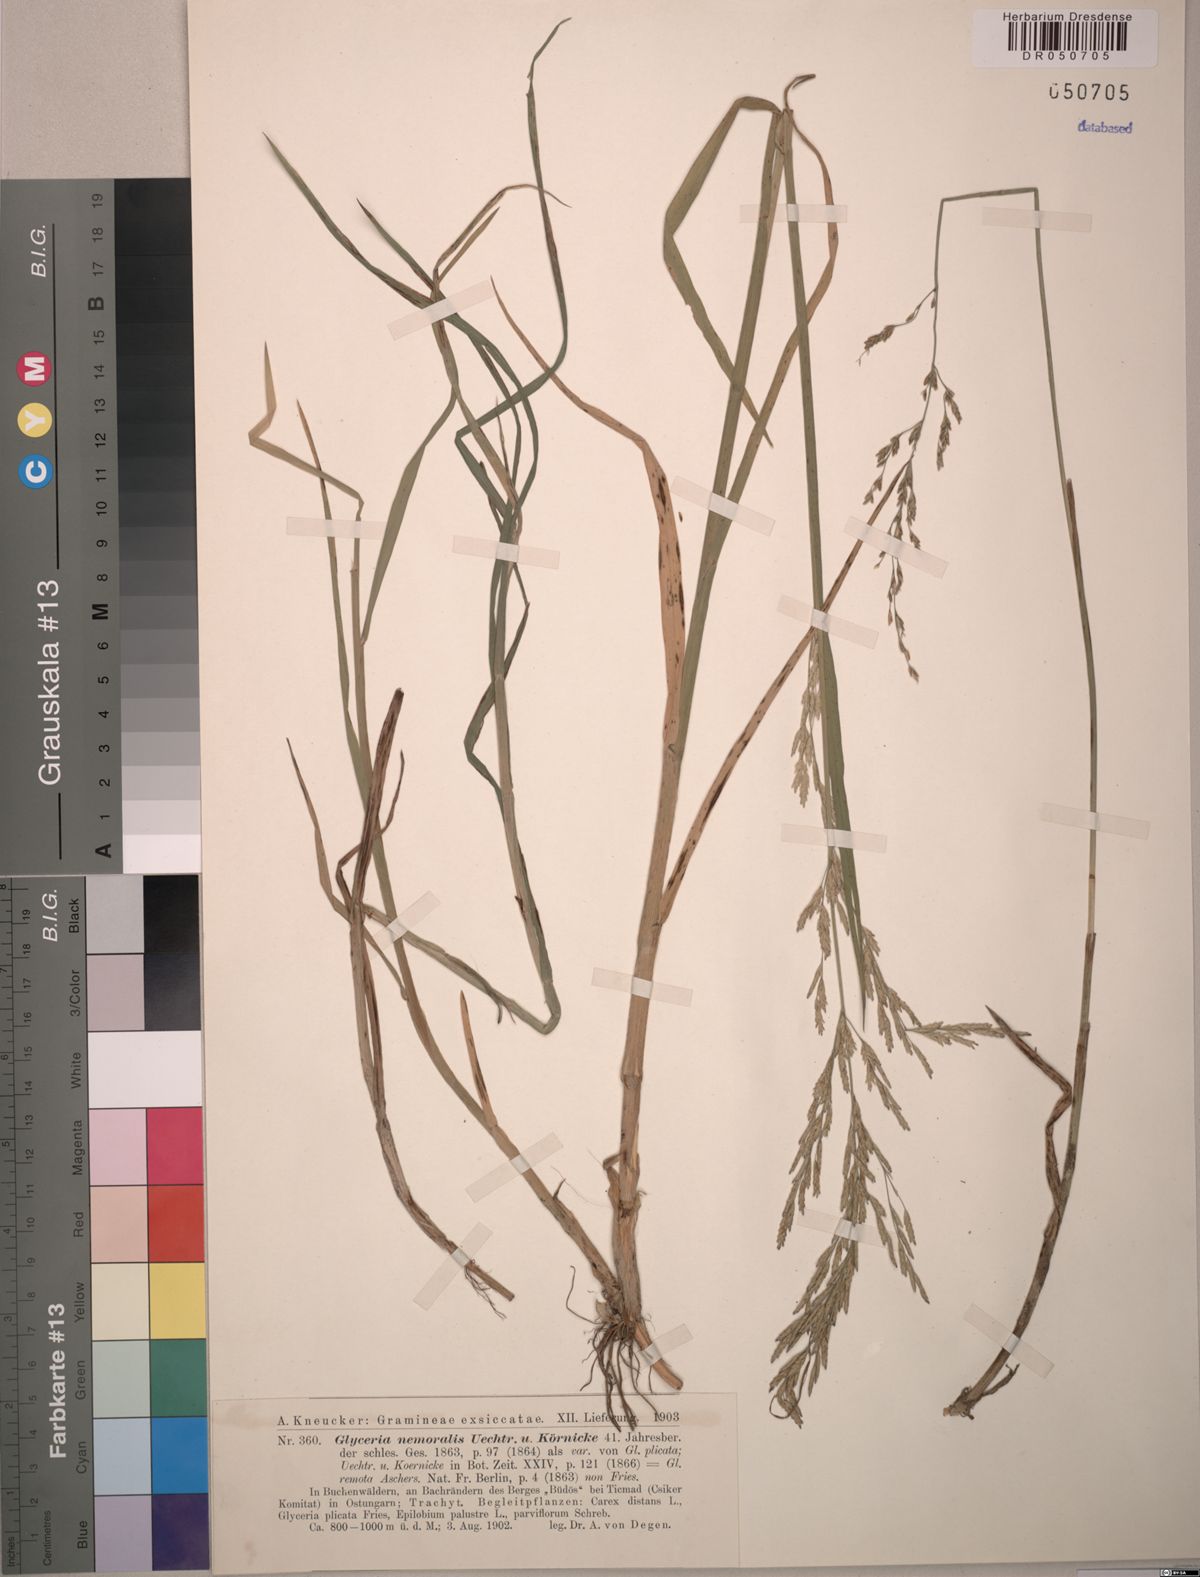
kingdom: Plantae
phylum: Tracheophyta
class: Liliopsida
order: Poales
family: Poaceae
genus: Glyceria
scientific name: Glyceria nemoralis
